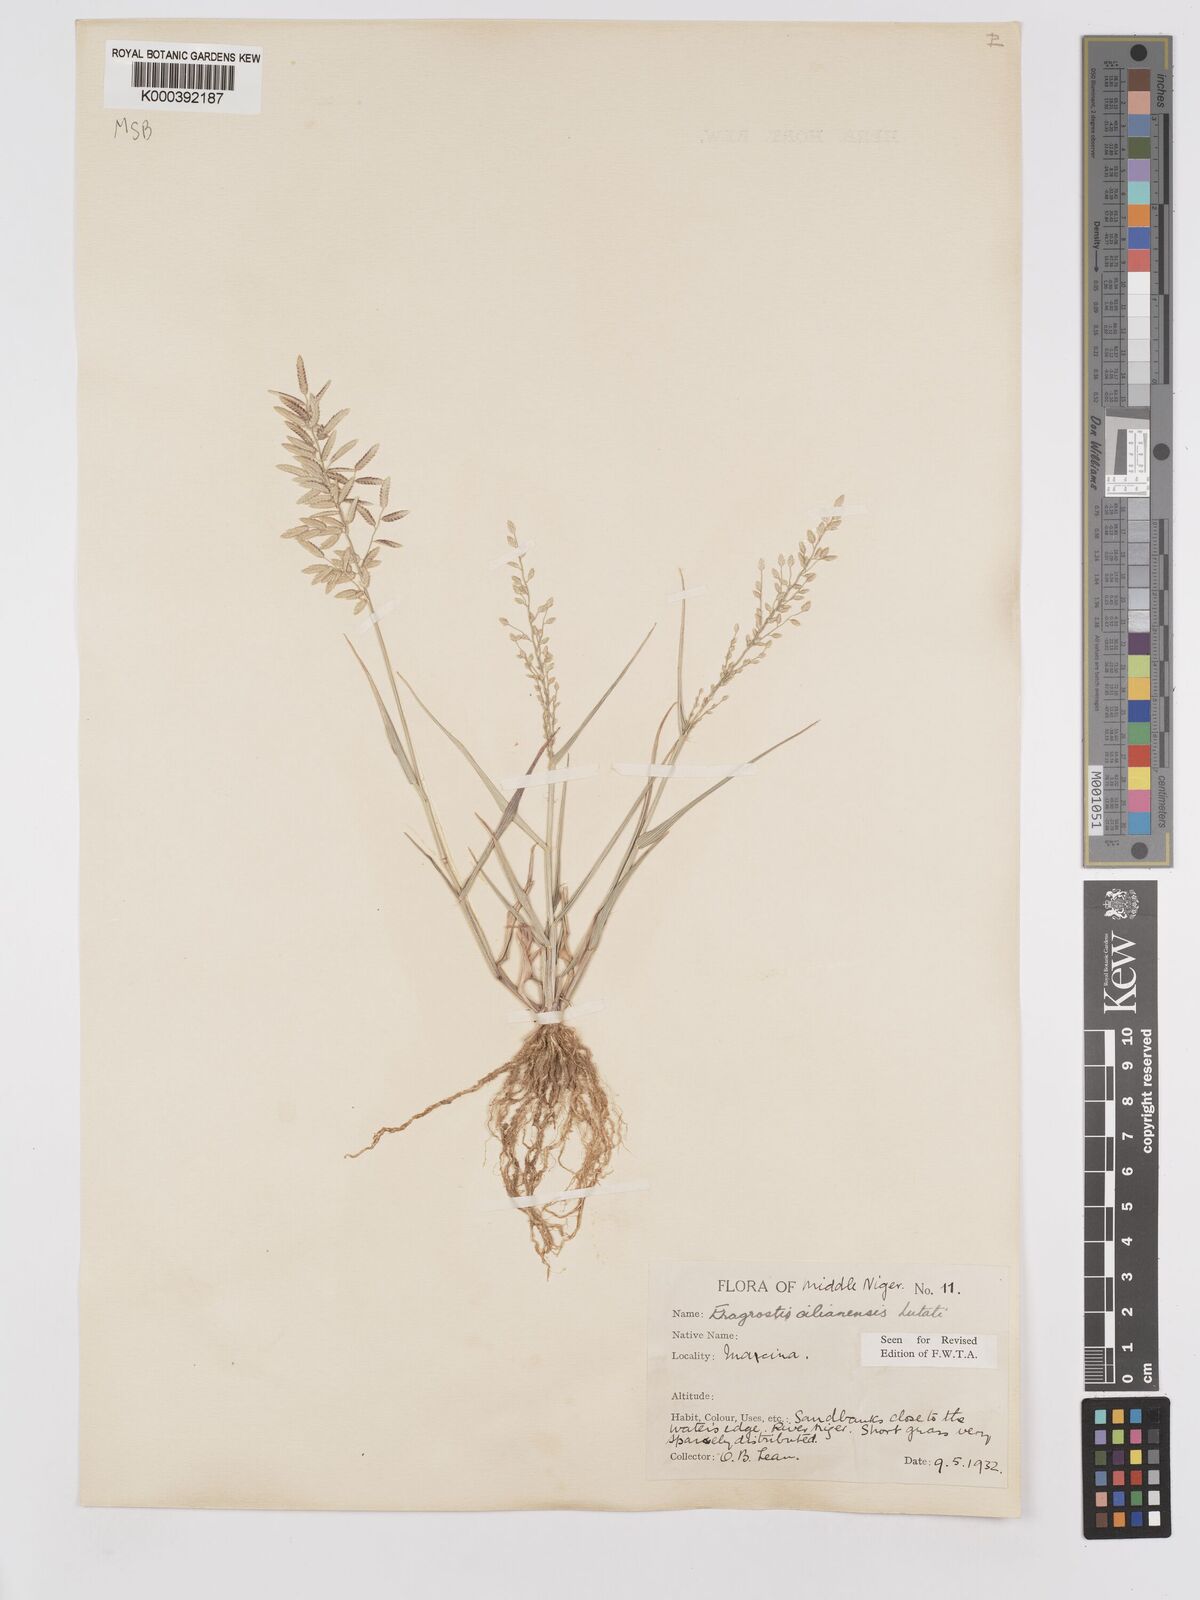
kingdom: Plantae
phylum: Tracheophyta
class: Liliopsida
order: Poales
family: Poaceae
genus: Eragrostis
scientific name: Eragrostis cilianensis
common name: Stinkgrass
